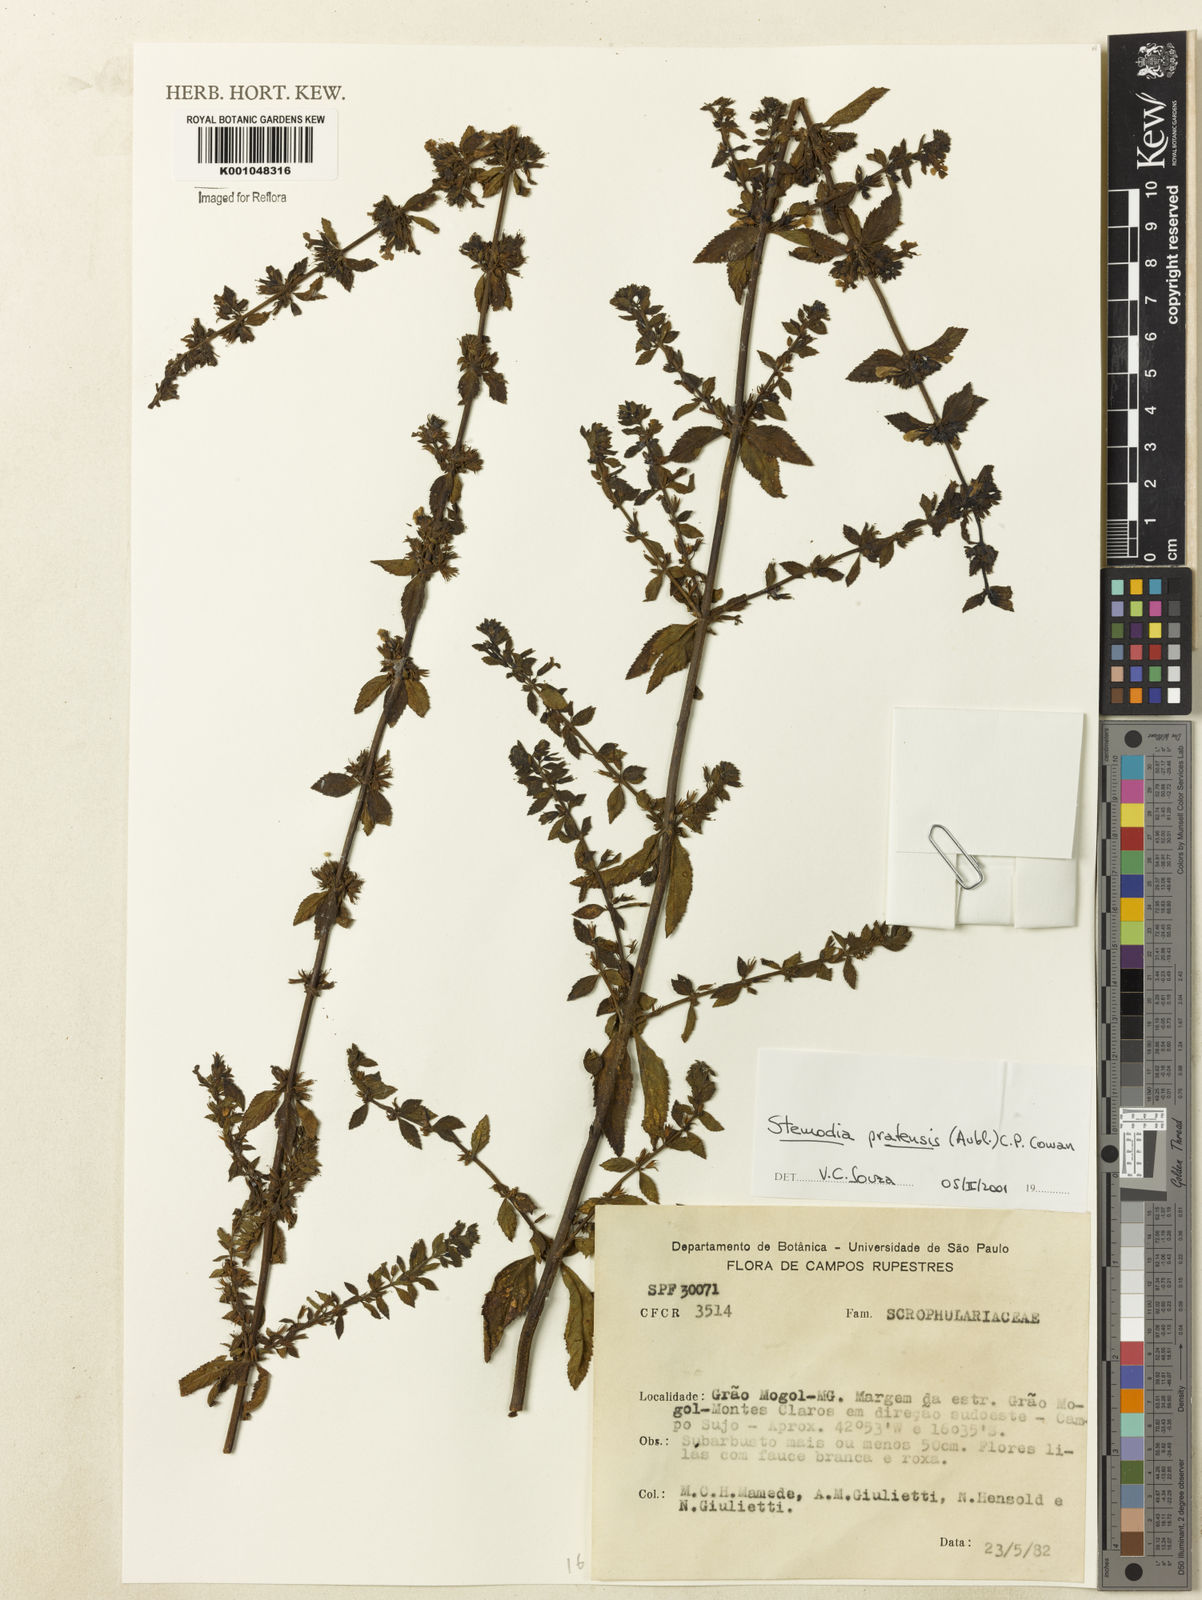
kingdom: Plantae
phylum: Tracheophyta
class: Magnoliopsida
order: Lamiales
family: Plantaginaceae
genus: Stemodia
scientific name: Stemodia foliosa
